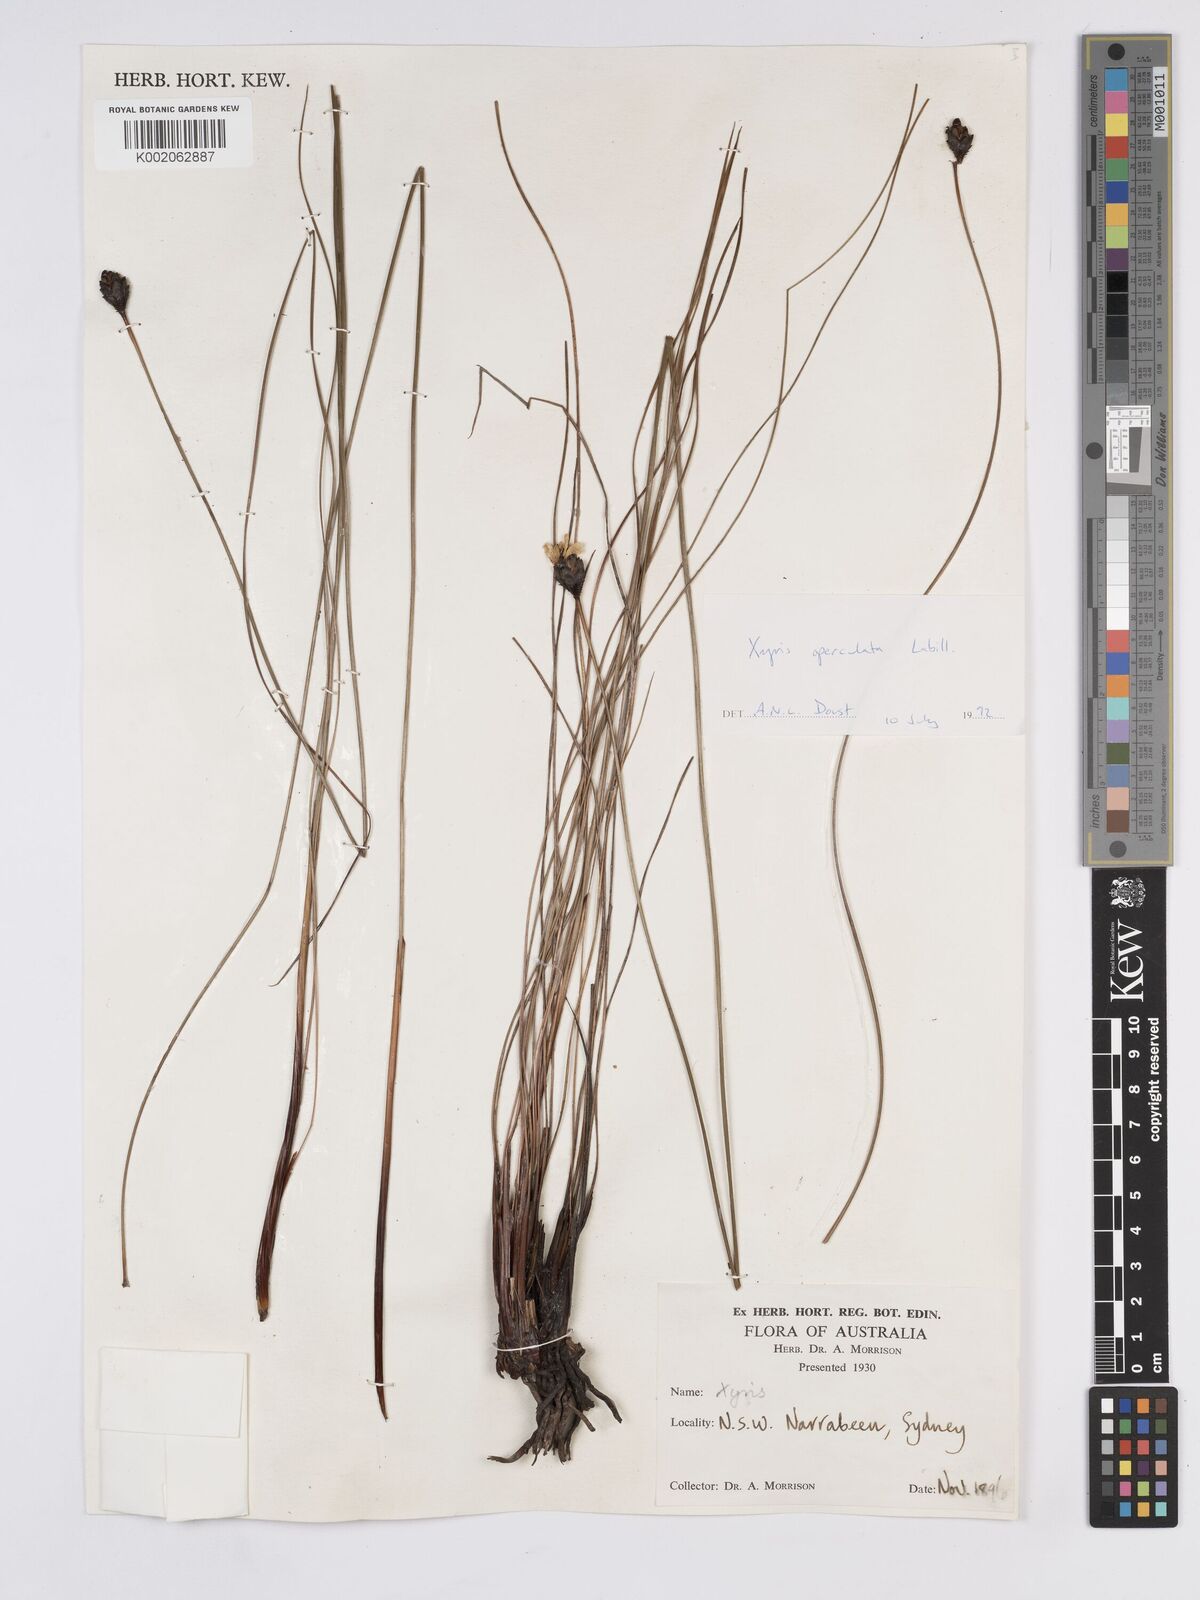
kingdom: Plantae
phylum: Tracheophyta
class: Liliopsida
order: Poales
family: Xyridaceae
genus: Xyris
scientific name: Xyris operculata
